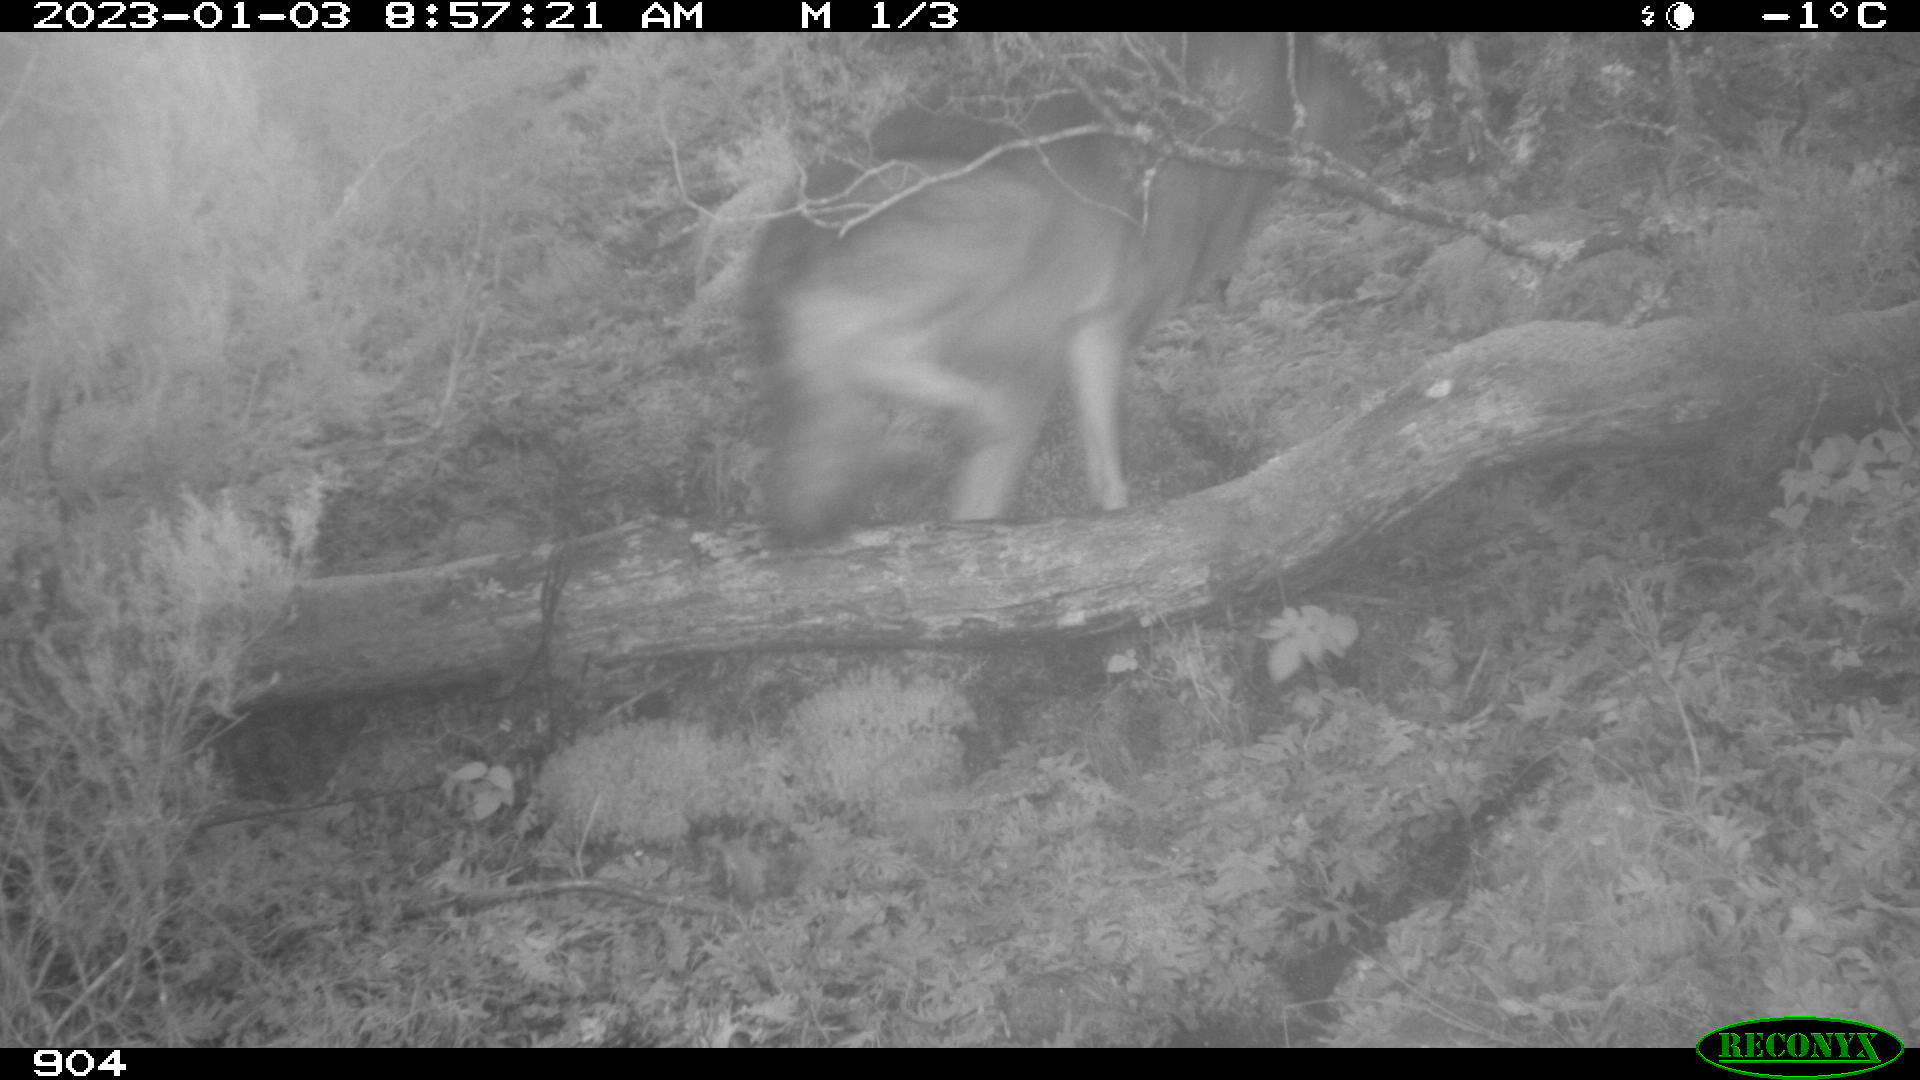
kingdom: Animalia
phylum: Chordata
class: Mammalia
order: Carnivora
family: Canidae
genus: Canis
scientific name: Canis lupus
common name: Gray wolf
